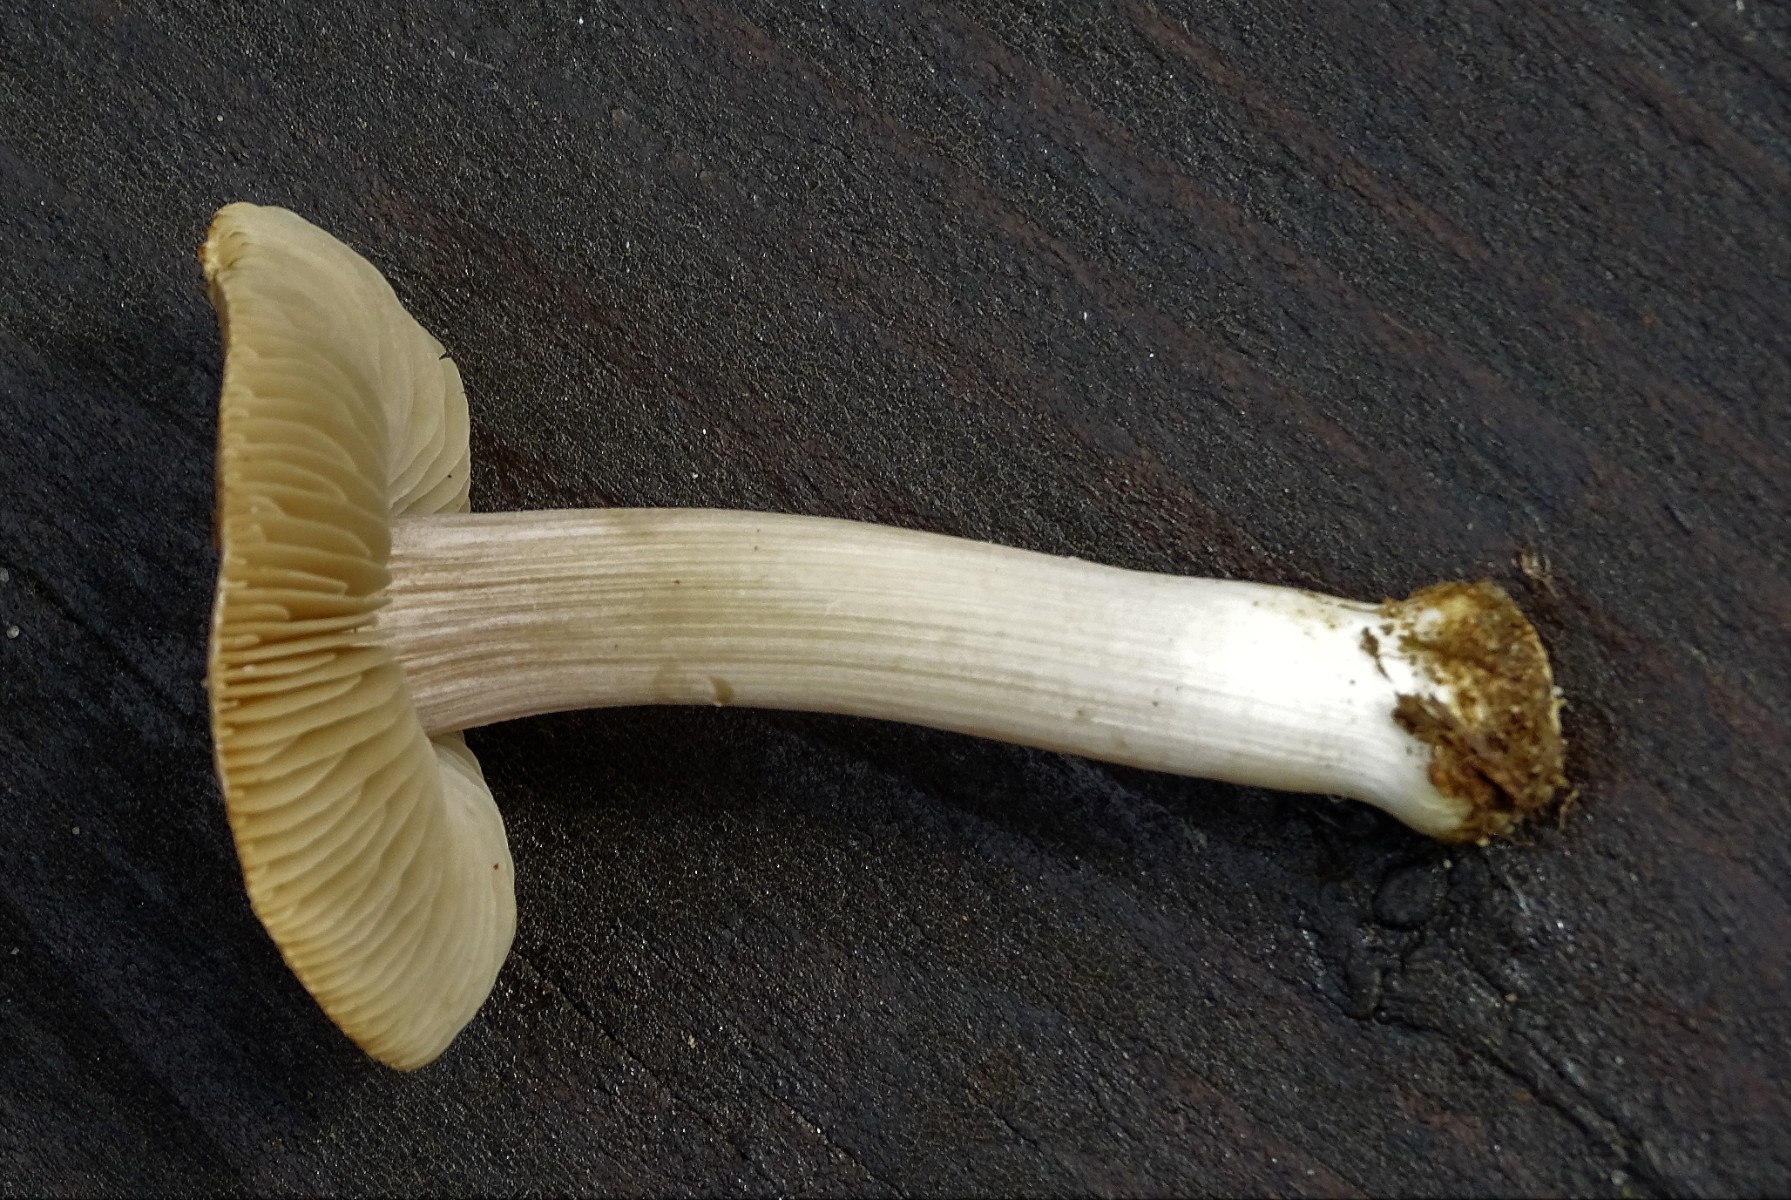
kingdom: Fungi
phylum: Basidiomycota
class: Agaricomycetes
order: Agaricales
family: Inocybaceae
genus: Inocybe
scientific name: Inocybe mixtilis
